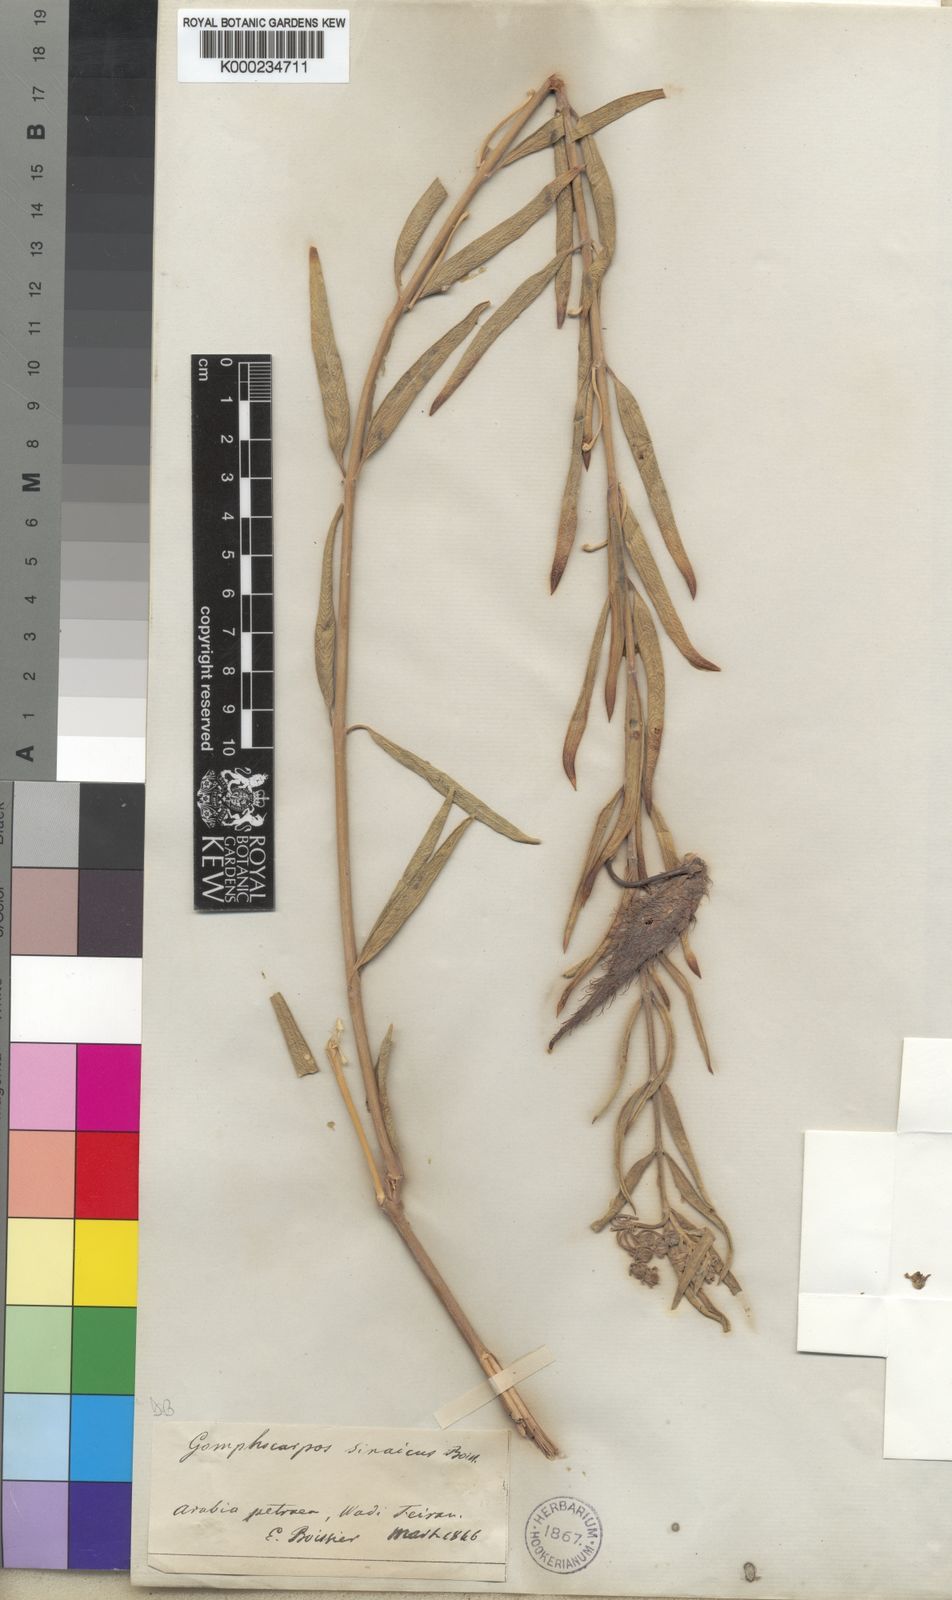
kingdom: Plantae
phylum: Tracheophyta
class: Magnoliopsida
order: Gentianales
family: Apocynaceae
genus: Gomphocarpus
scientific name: Gomphocarpus sinaicus
